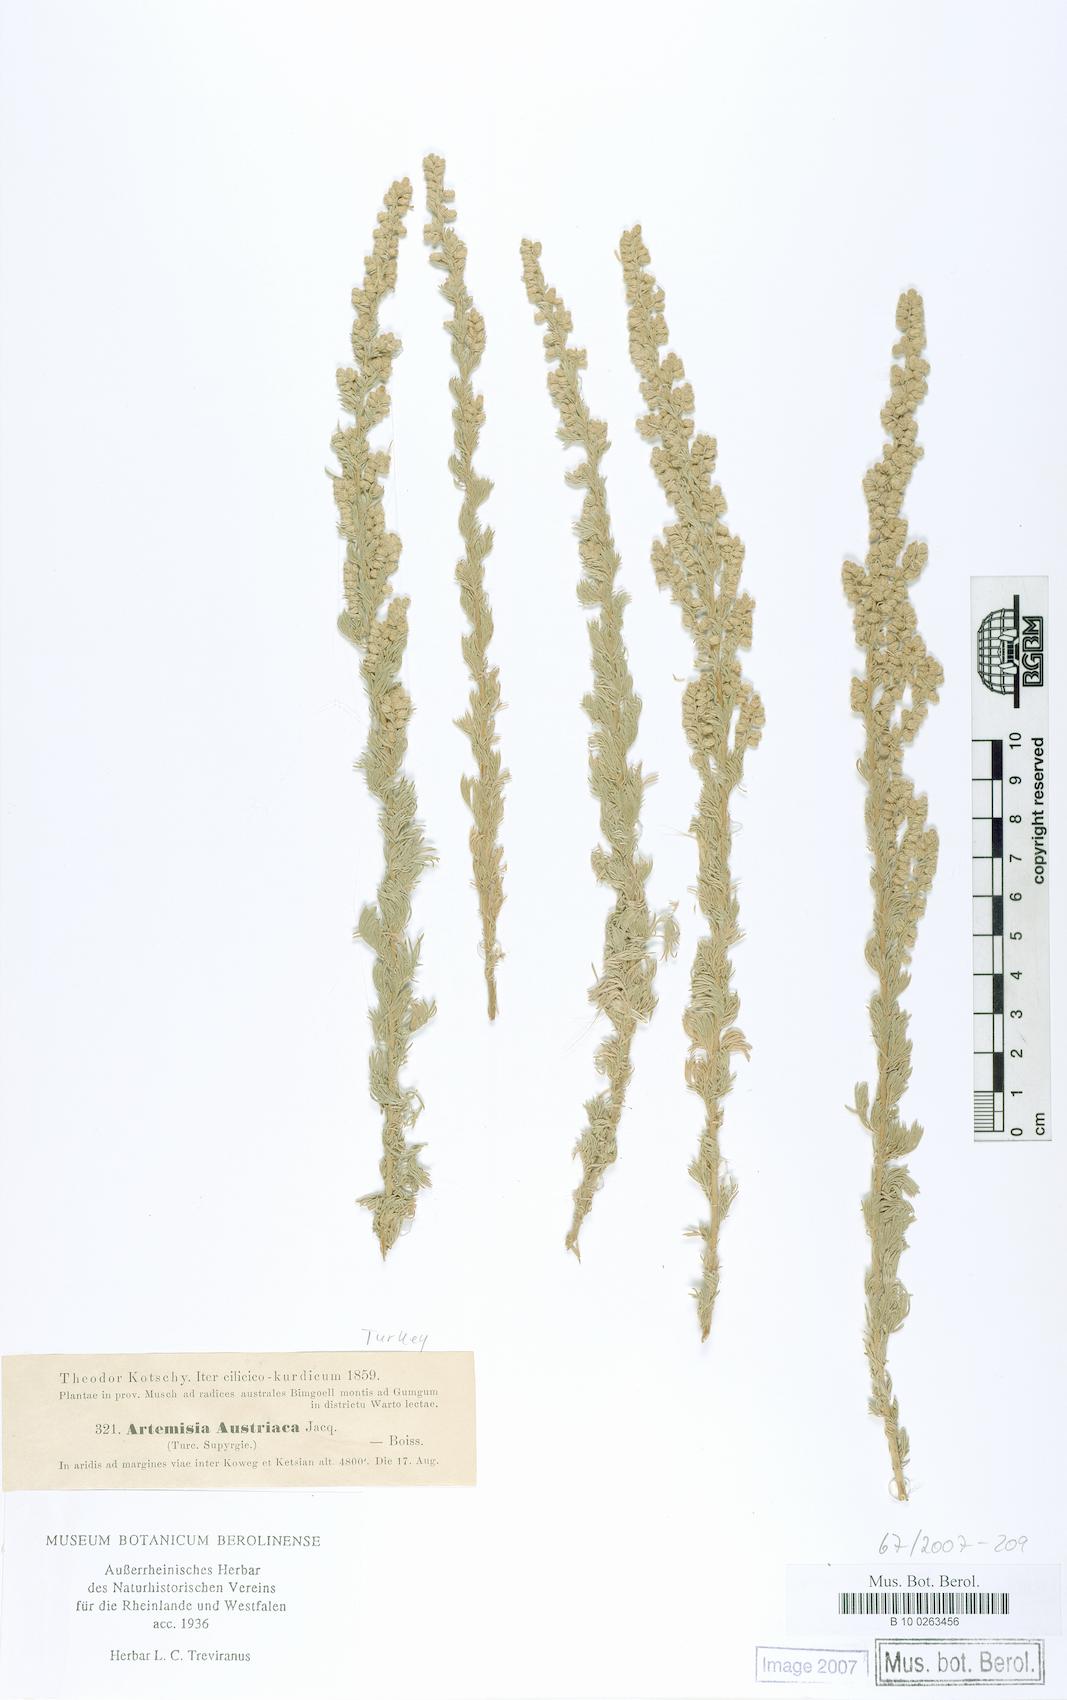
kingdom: Plantae
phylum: Tracheophyta
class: Magnoliopsida
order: Asterales
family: Asteraceae
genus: Artemisia
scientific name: Artemisia austriaca
